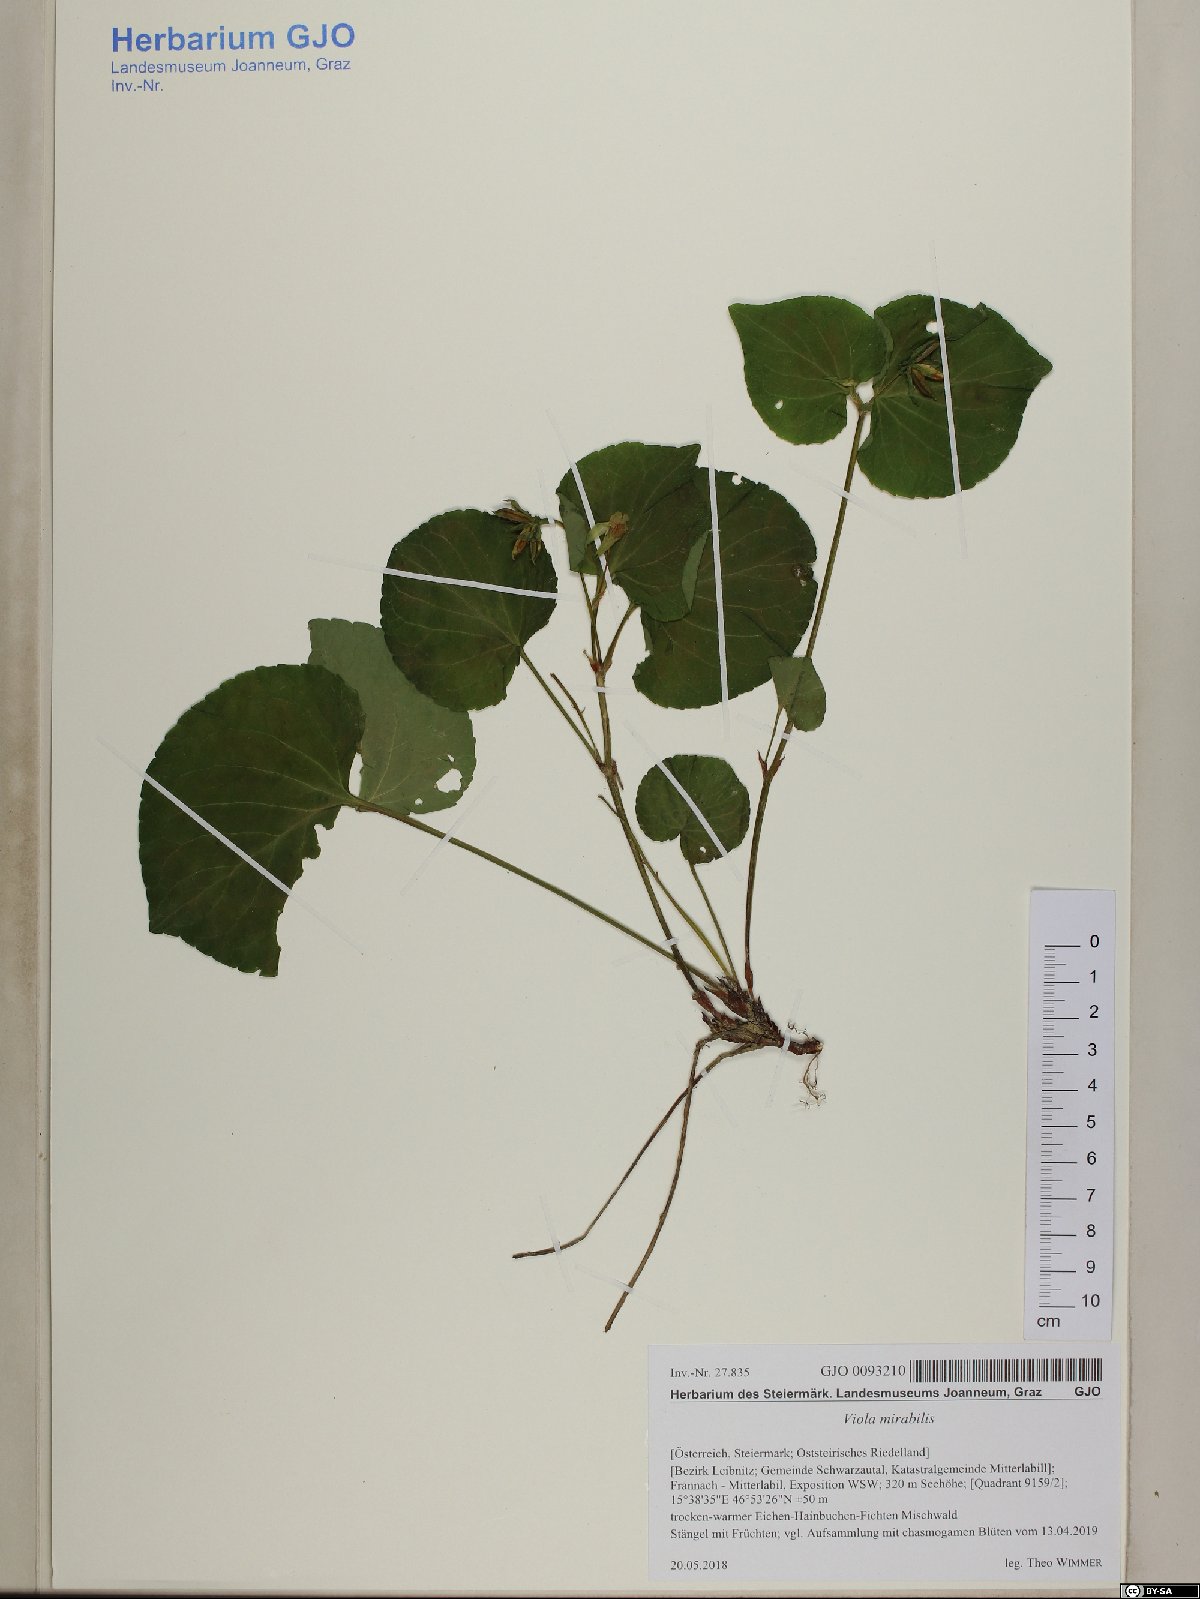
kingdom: Plantae
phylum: Tracheophyta
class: Magnoliopsida
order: Malpighiales
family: Violaceae
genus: Viola
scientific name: Viola mirabilis
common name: Wonder violet
